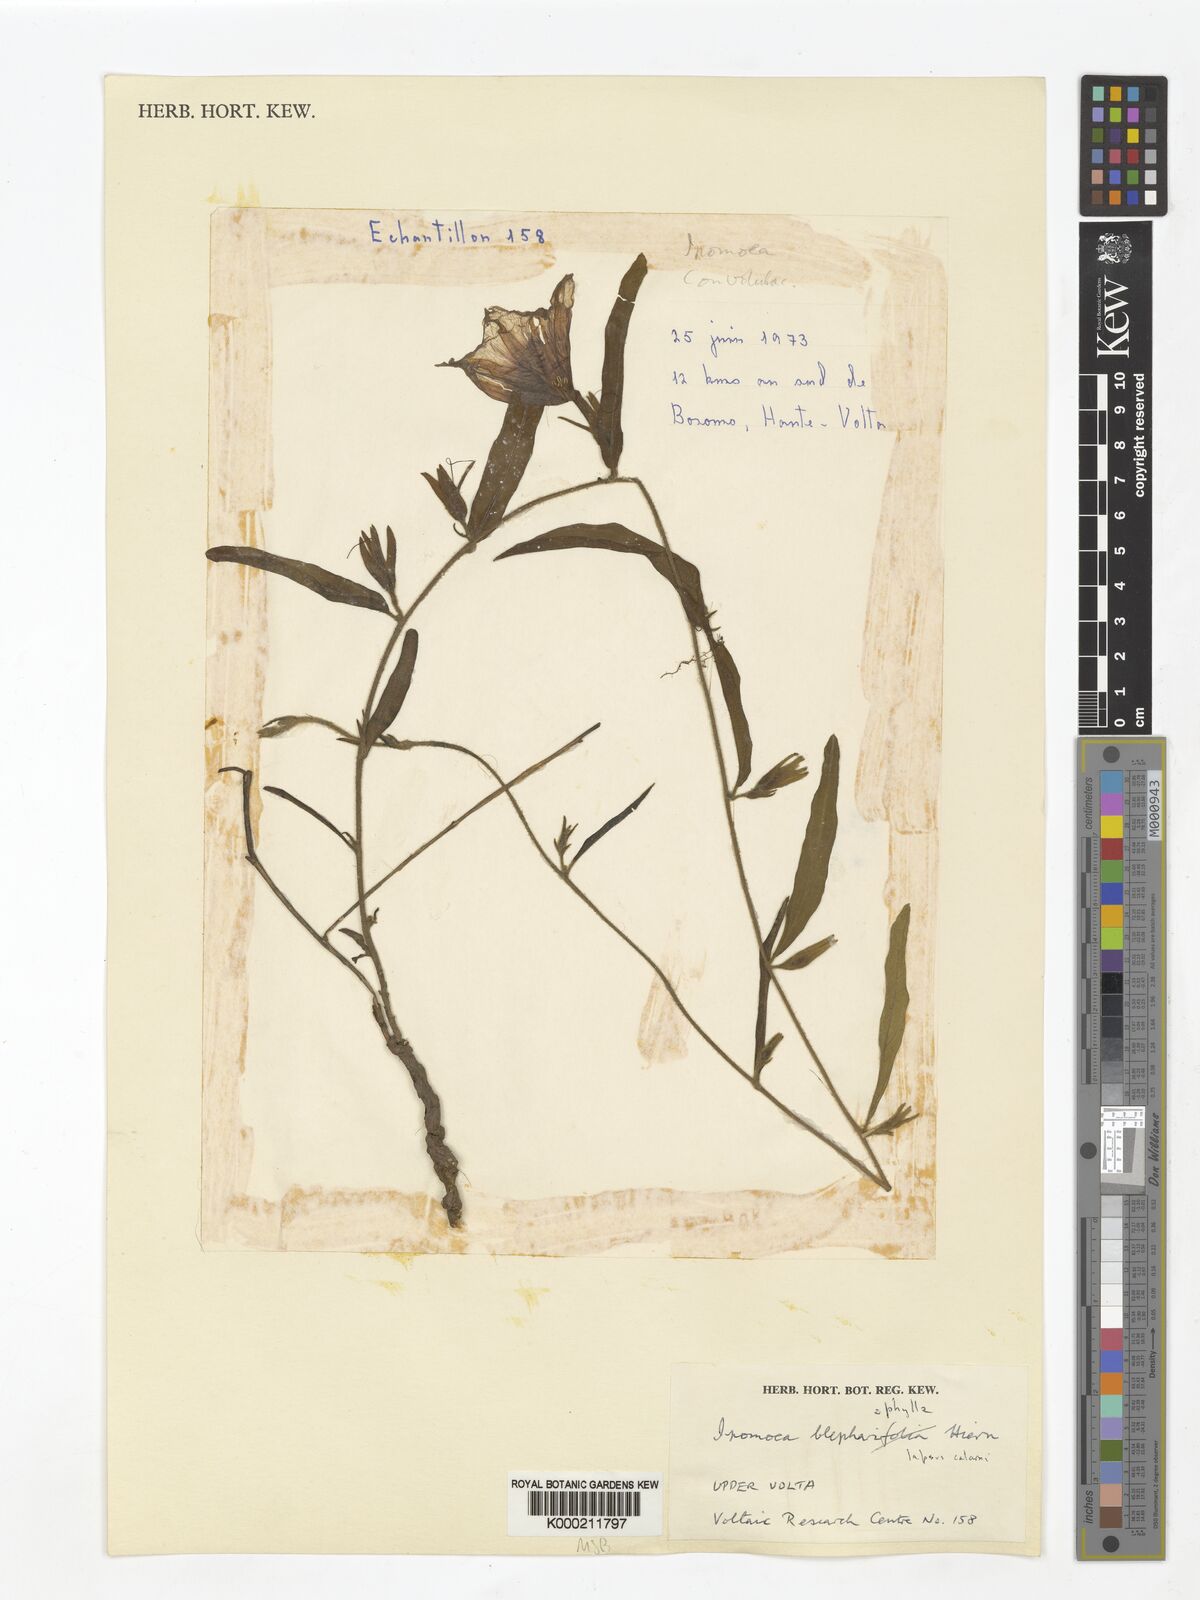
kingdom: Plantae
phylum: Tracheophyta
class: Magnoliopsida
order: Solanales
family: Convolvulaceae
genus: Ipomoea
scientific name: Ipomoea blepharophylla
